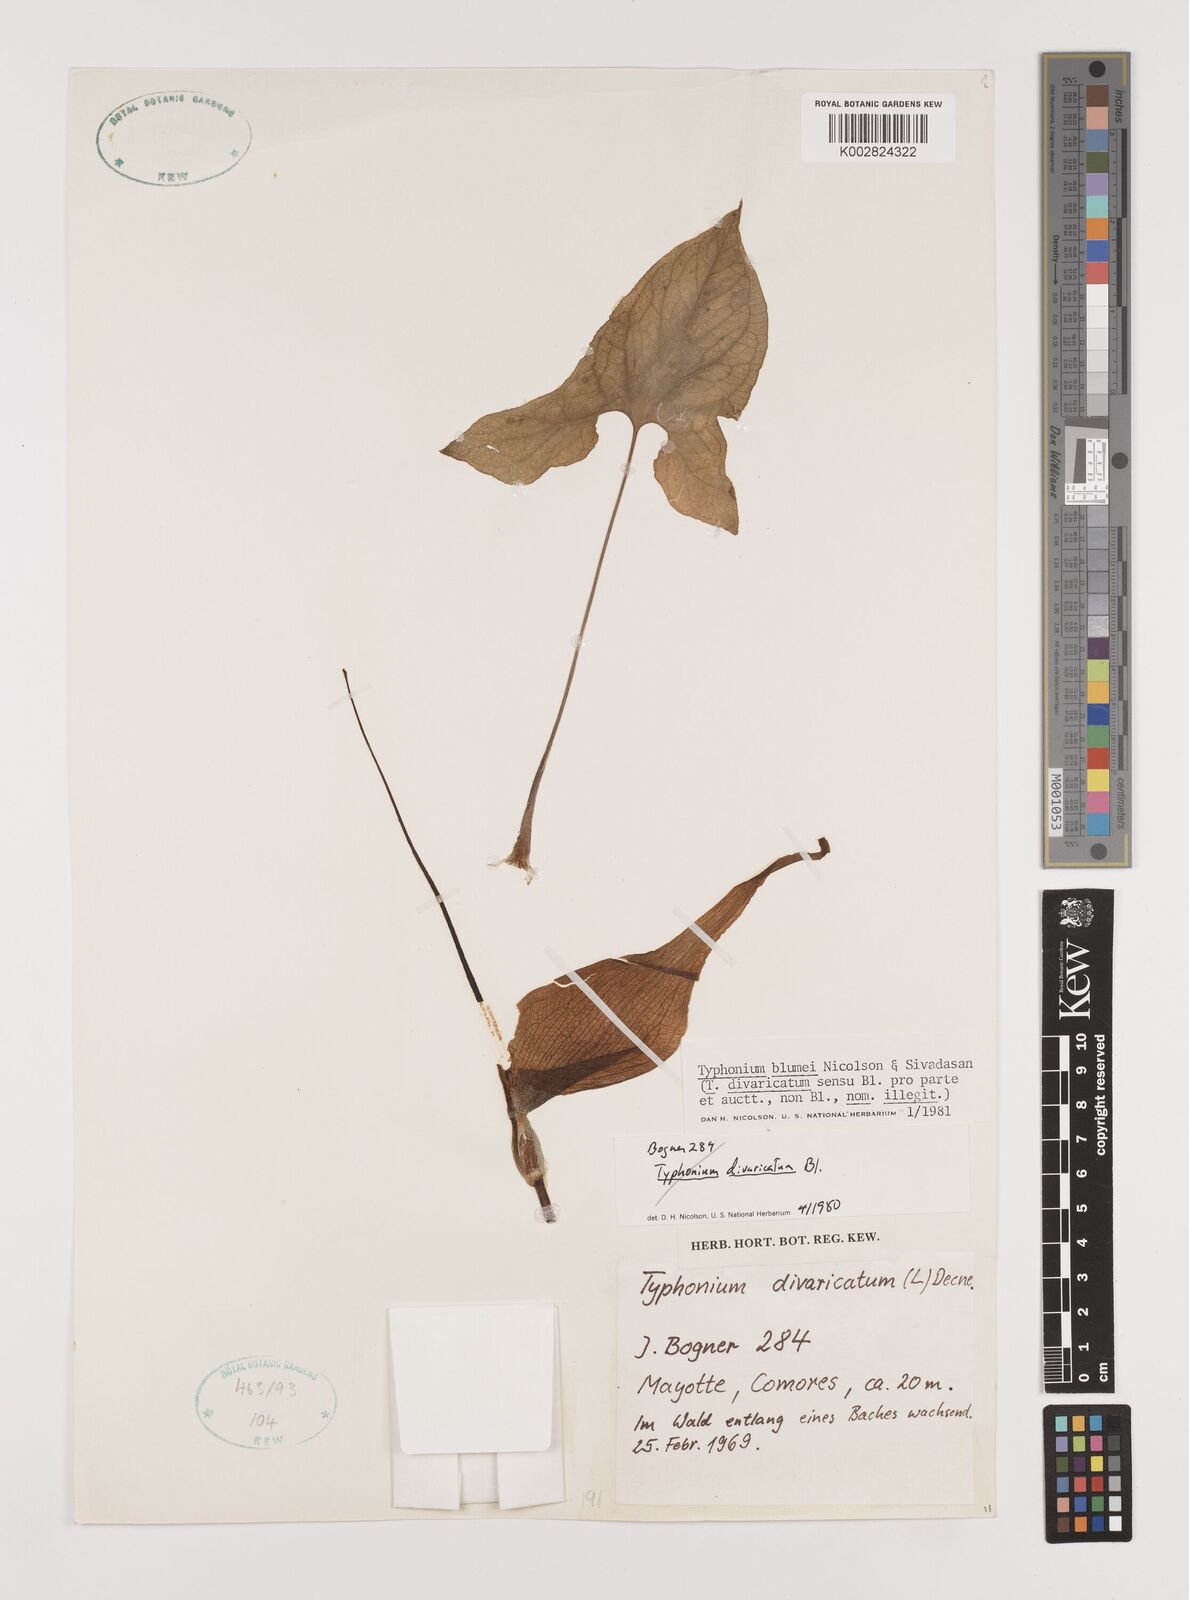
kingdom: Plantae
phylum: Tracheophyta
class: Liliopsida
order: Alismatales
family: Araceae
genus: Typhonium
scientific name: Typhonium blumei
